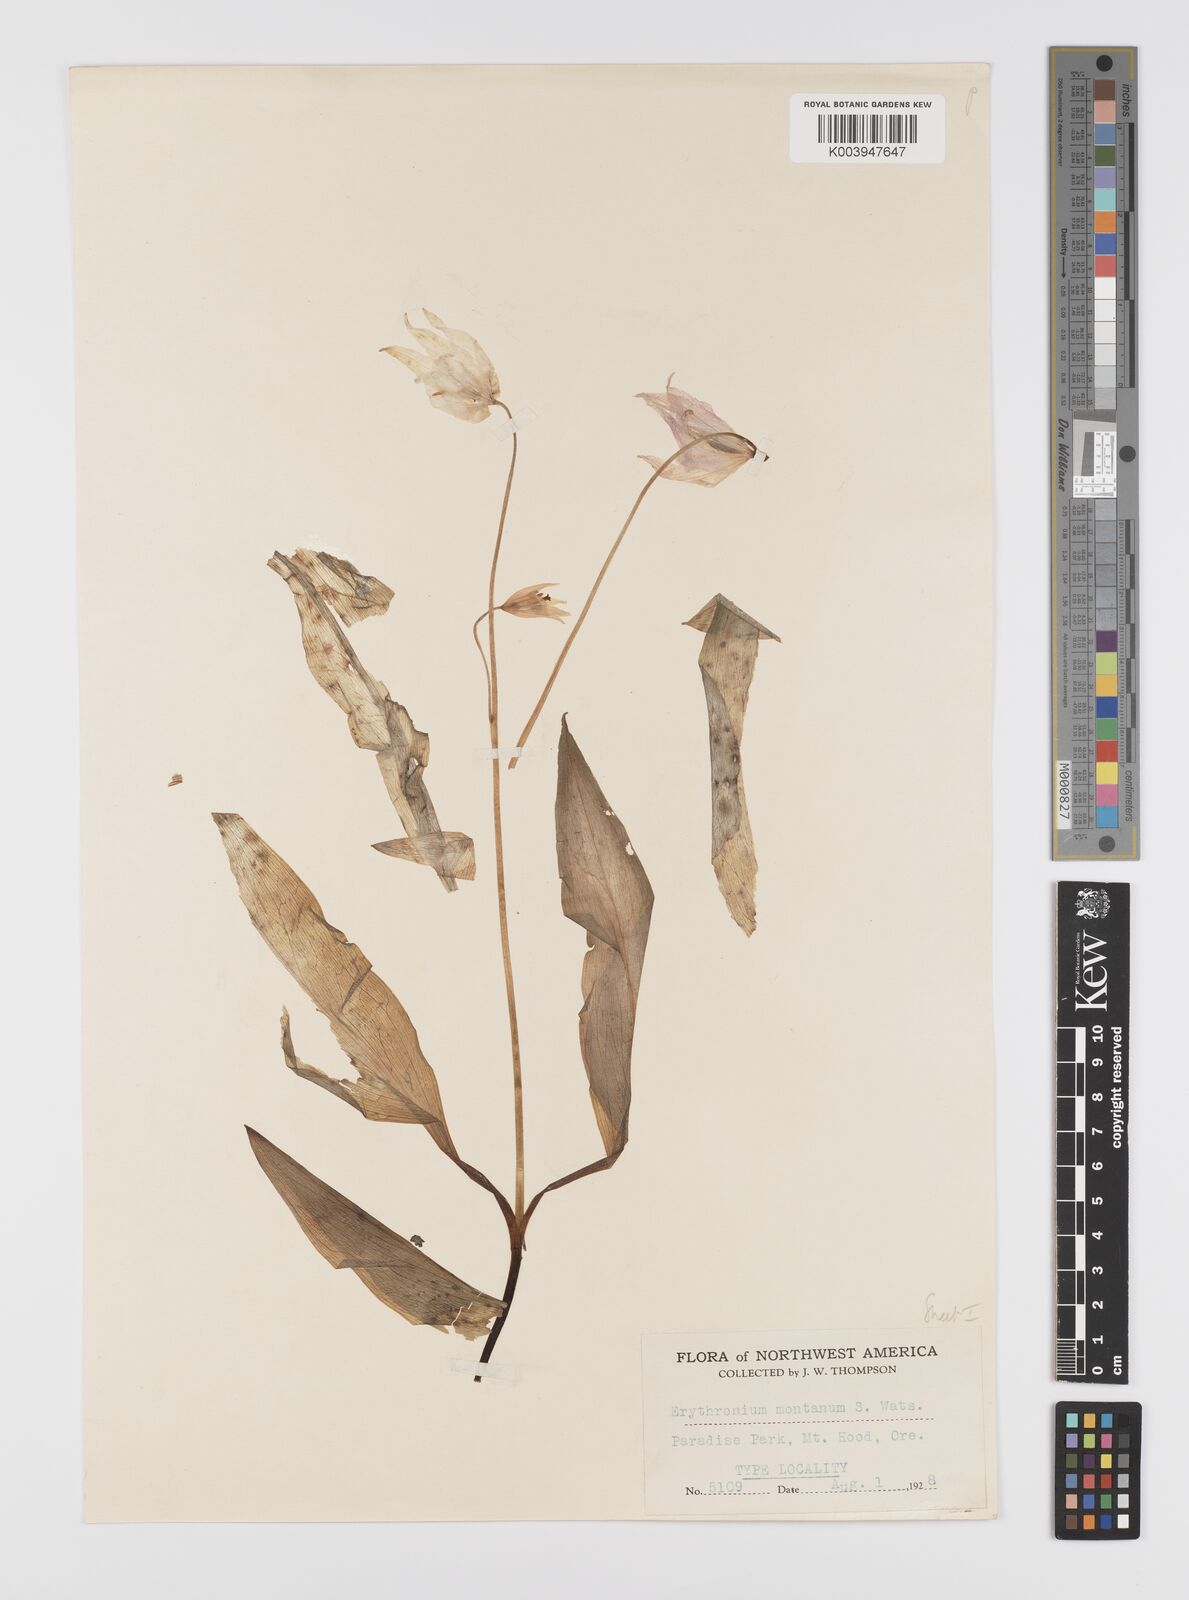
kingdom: Plantae
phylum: Tracheophyta
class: Liliopsida
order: Liliales
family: Liliaceae
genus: Erythronium
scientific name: Erythronium montanum
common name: Avalanche lily
